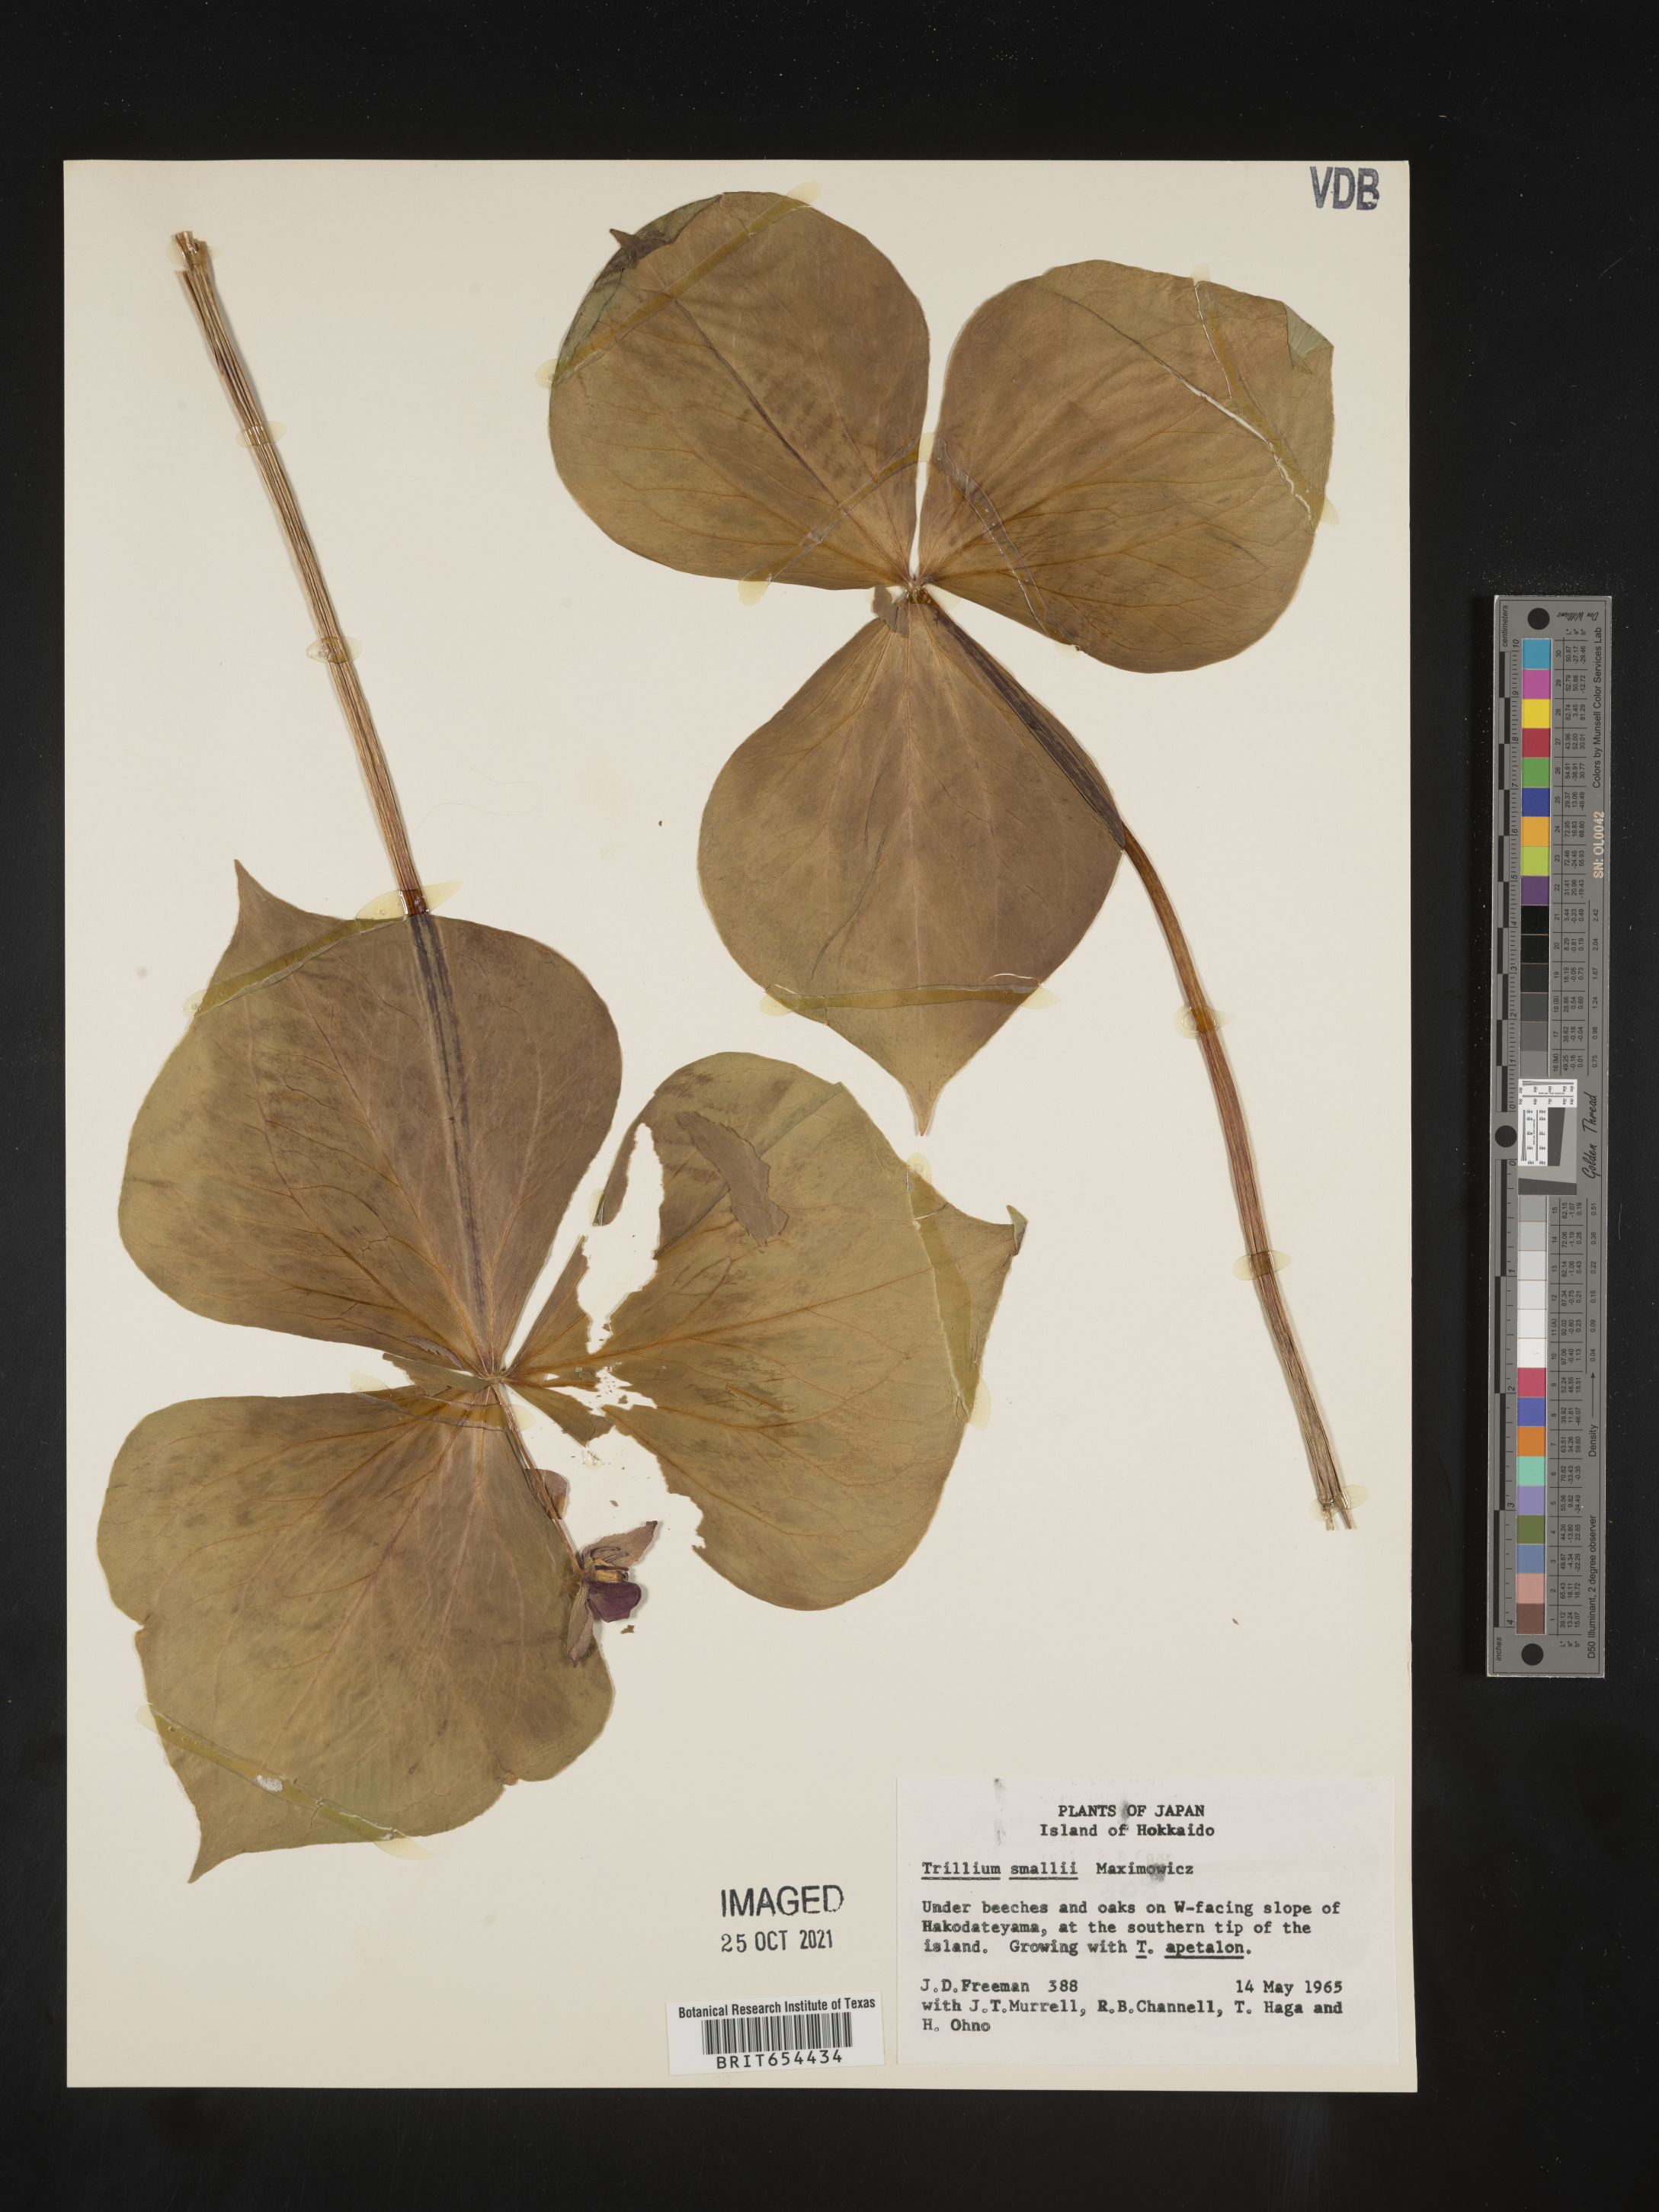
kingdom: Plantae
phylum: Tracheophyta
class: Liliopsida
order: Liliales
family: Melanthiaceae
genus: Trillium
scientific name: Trillium
